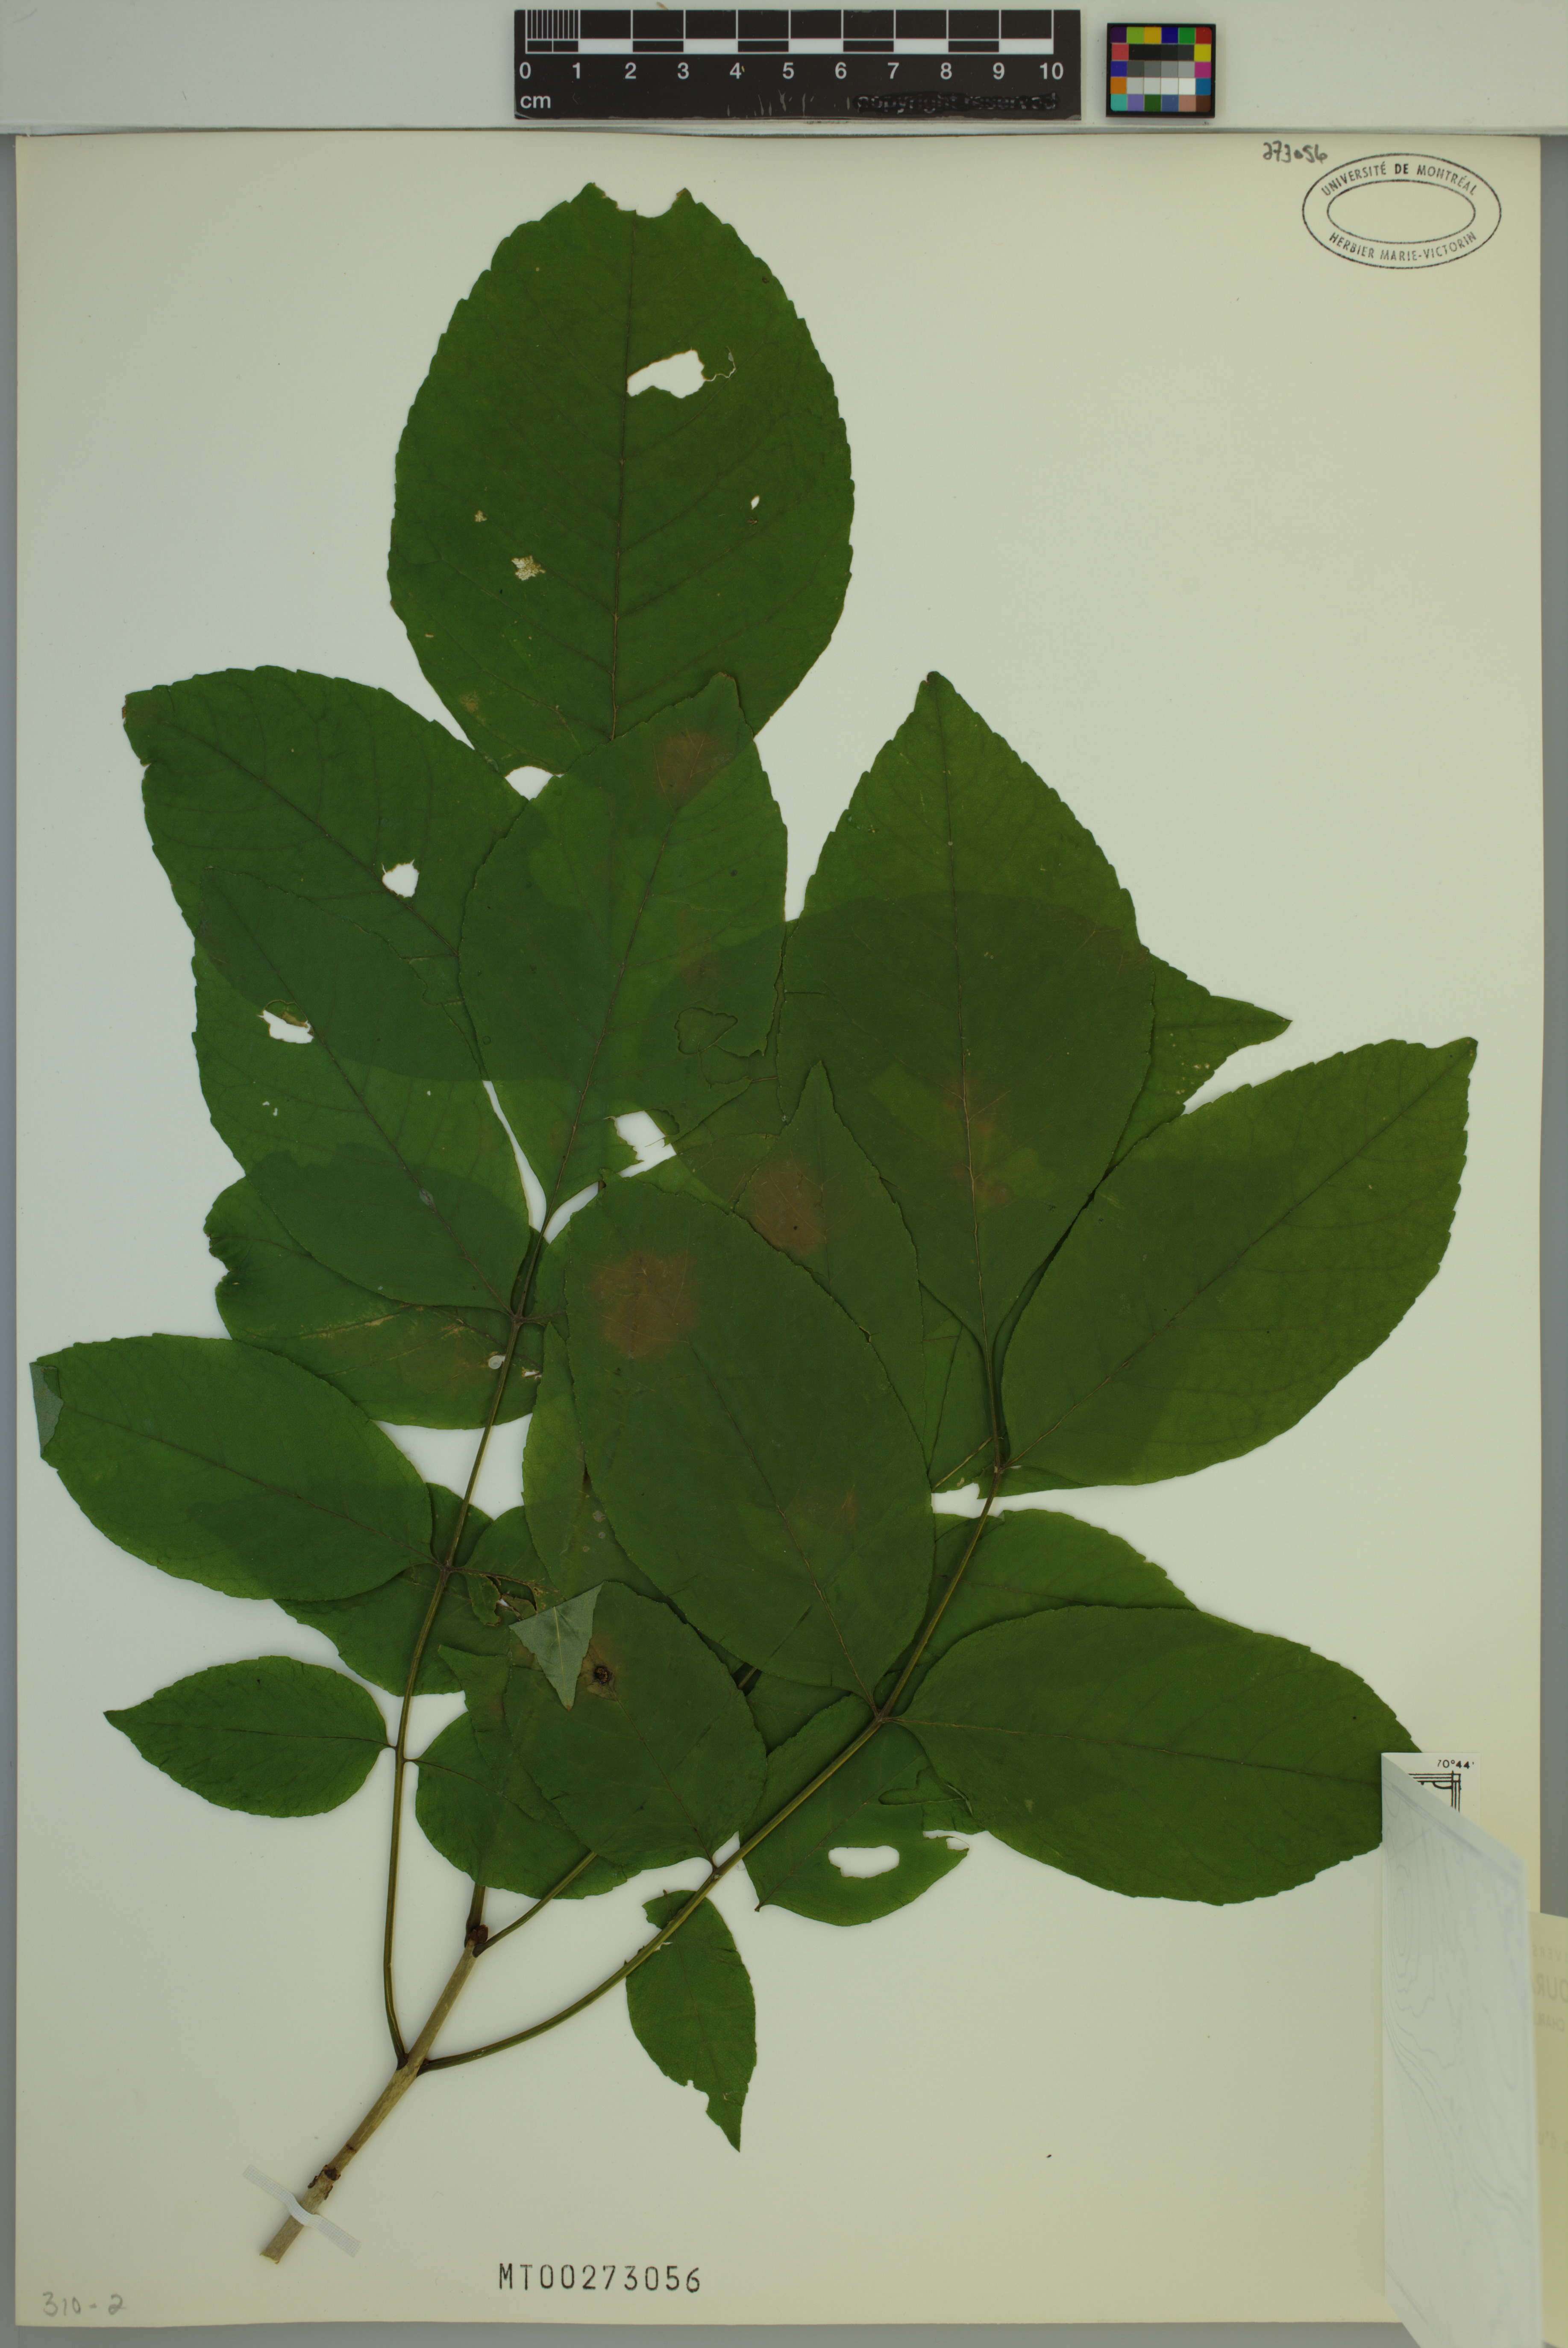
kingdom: Plantae
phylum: Tracheophyta
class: Magnoliopsida
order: Lamiales
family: Oleaceae
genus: Fraxinus
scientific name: Fraxinus americana
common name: White ash
